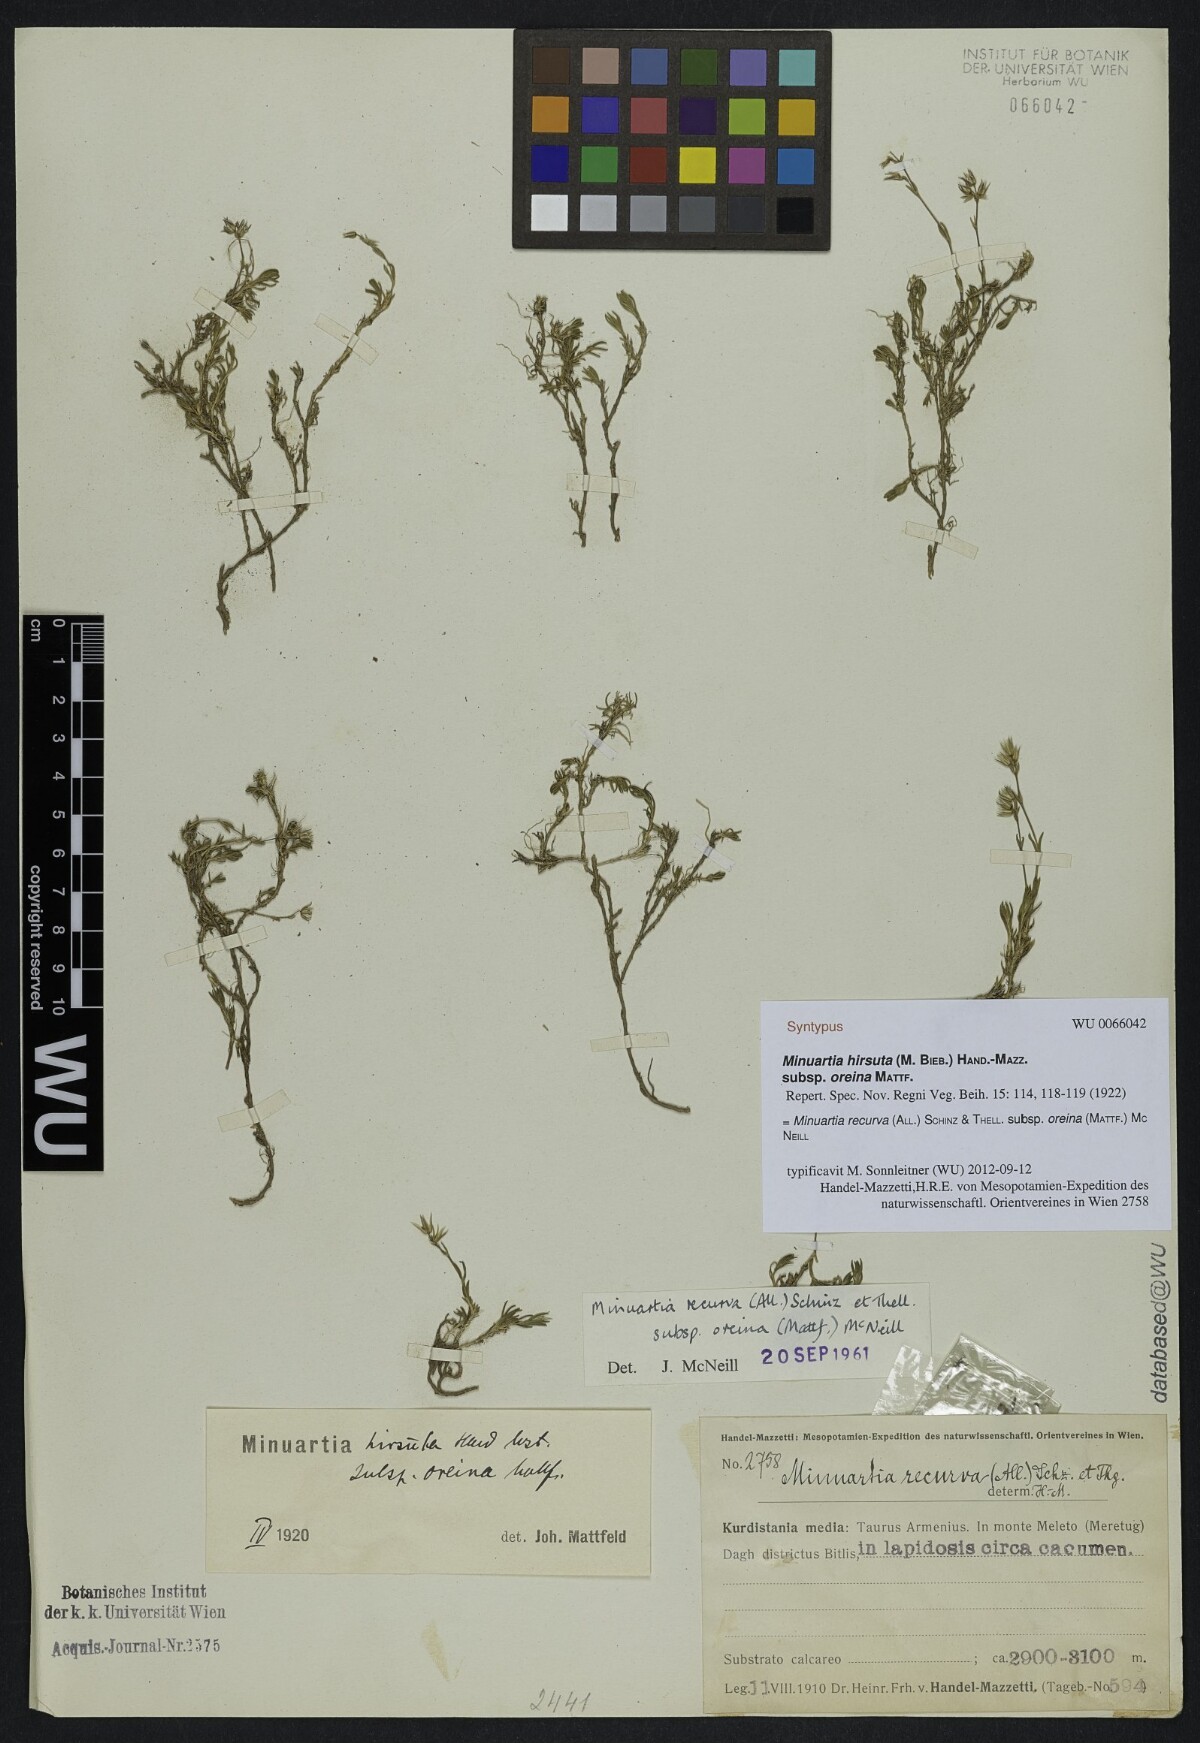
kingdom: Plantae
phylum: Tracheophyta
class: Magnoliopsida
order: Caryophyllales
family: Caryophyllaceae
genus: Minuartia
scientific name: Minuartia hirsuta
